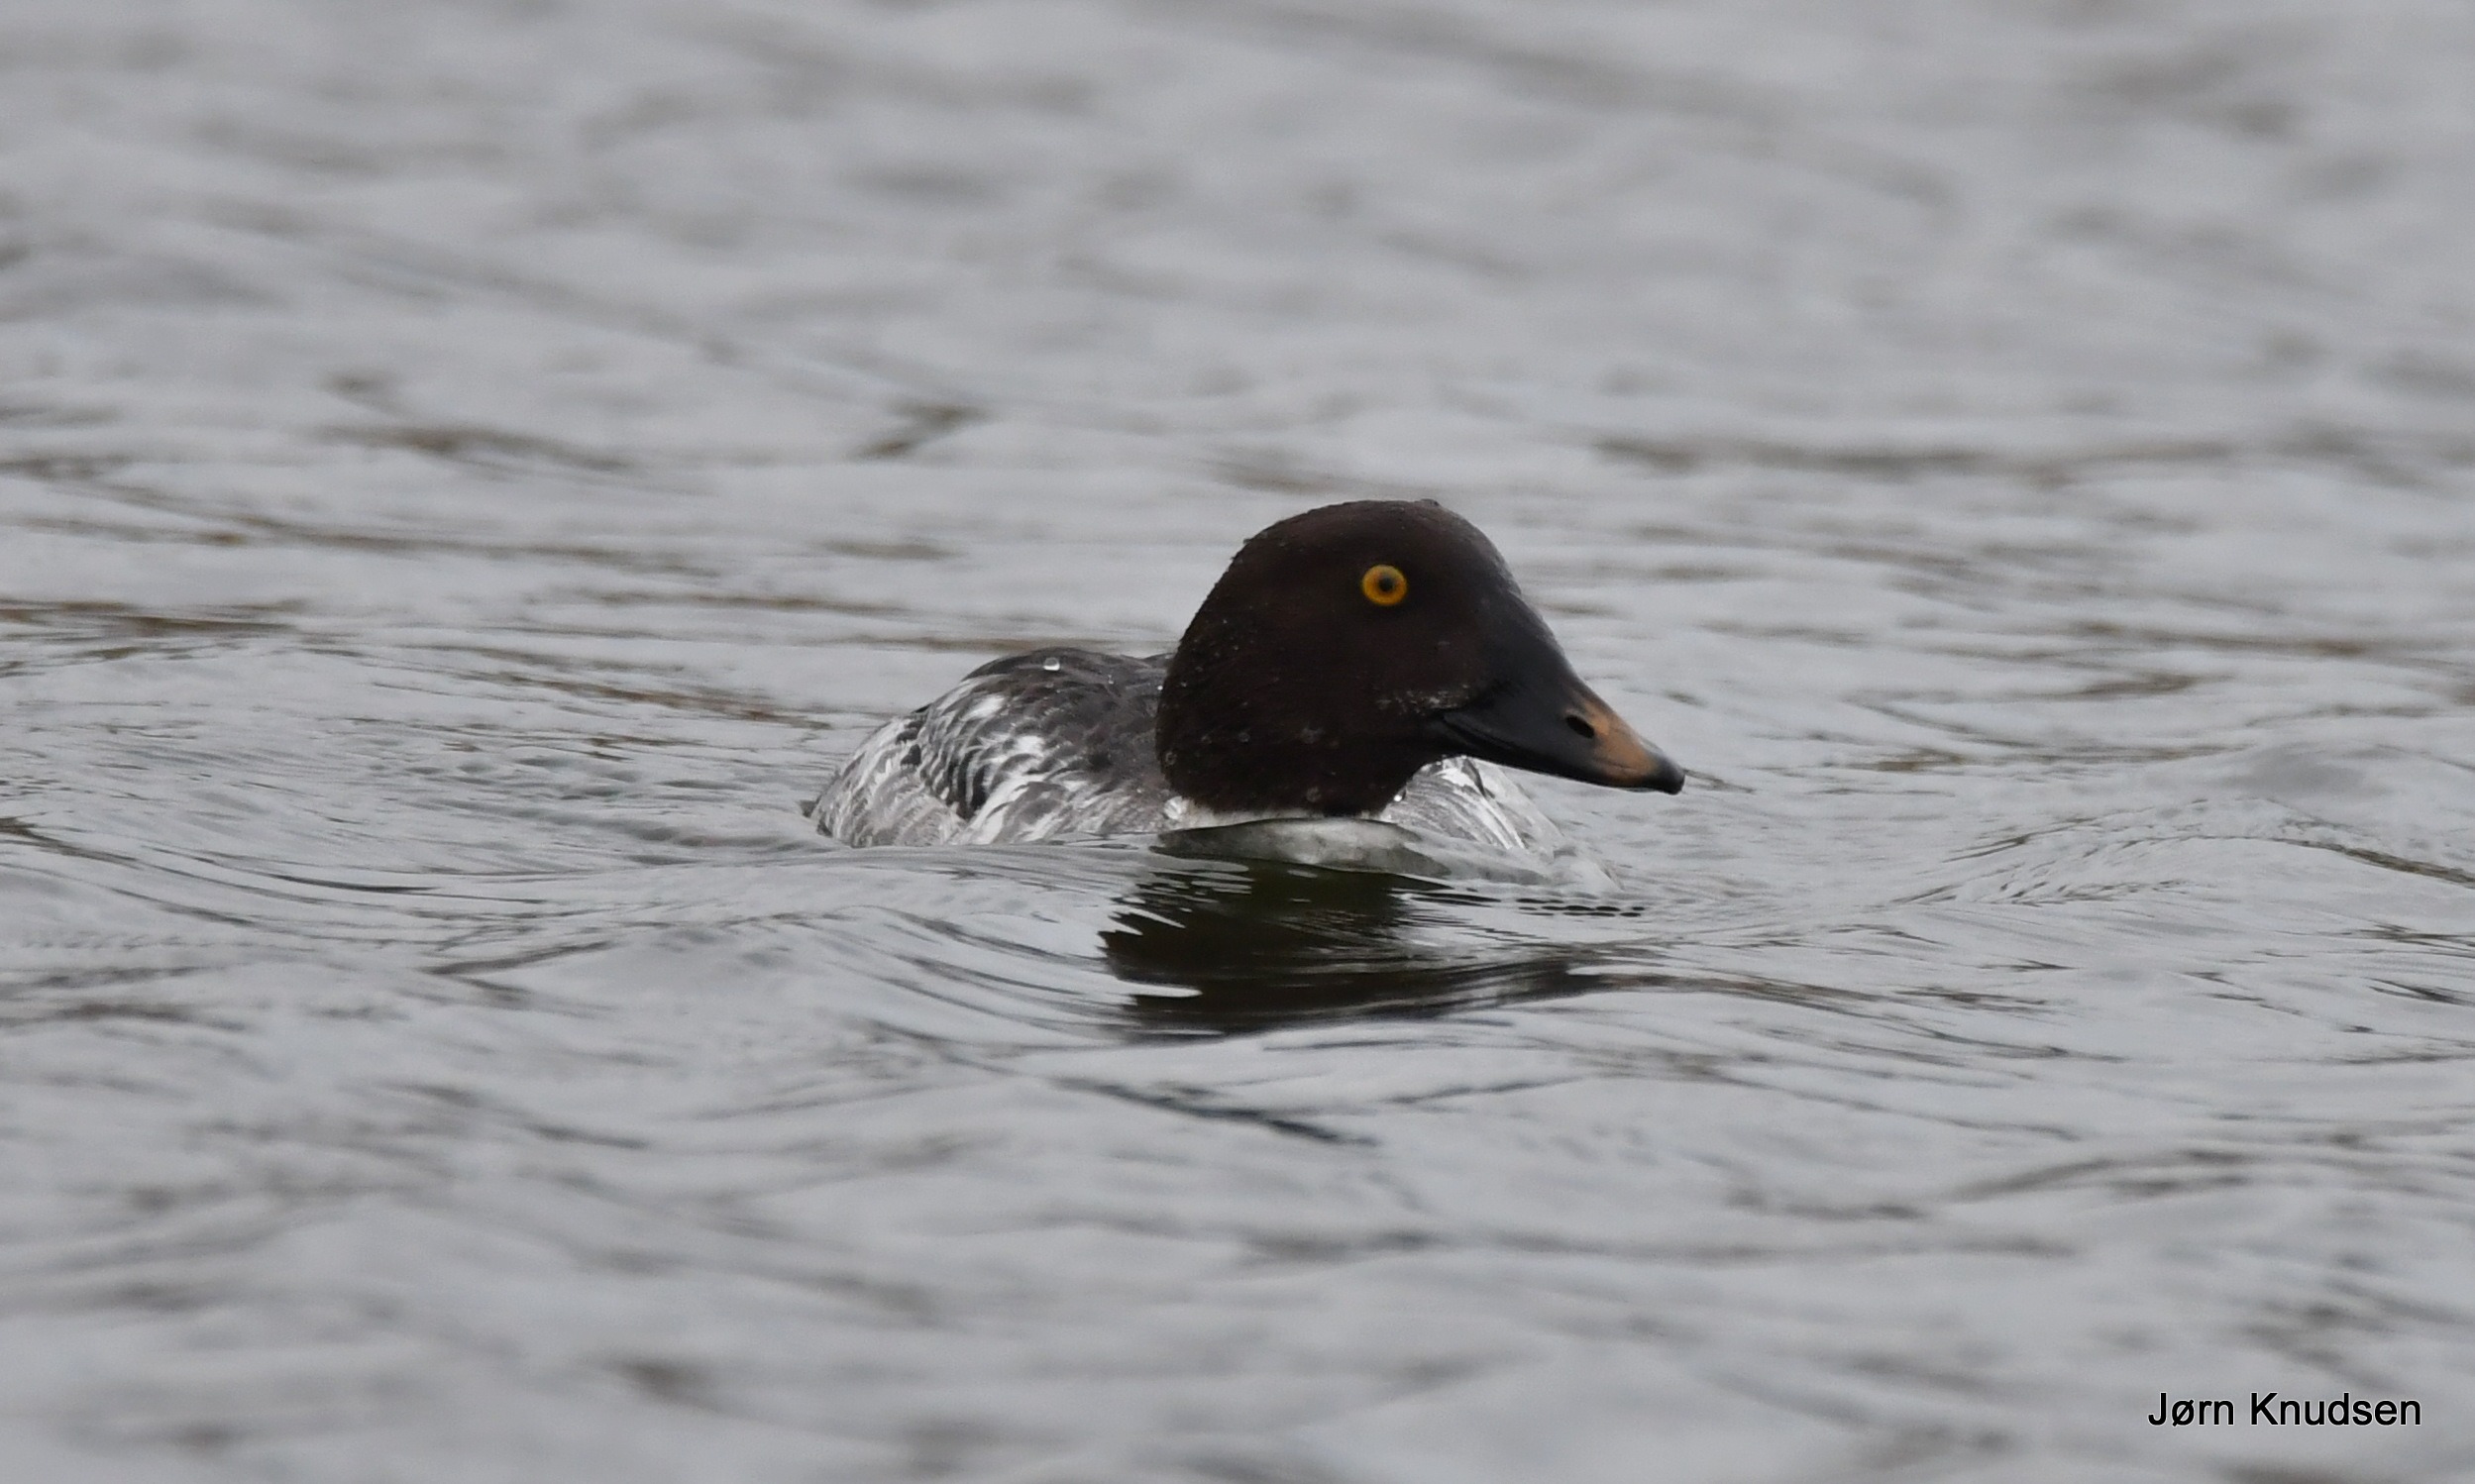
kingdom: Animalia
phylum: Chordata
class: Aves
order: Anseriformes
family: Anatidae
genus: Bucephala
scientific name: Bucephala clangula
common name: Hvinand
